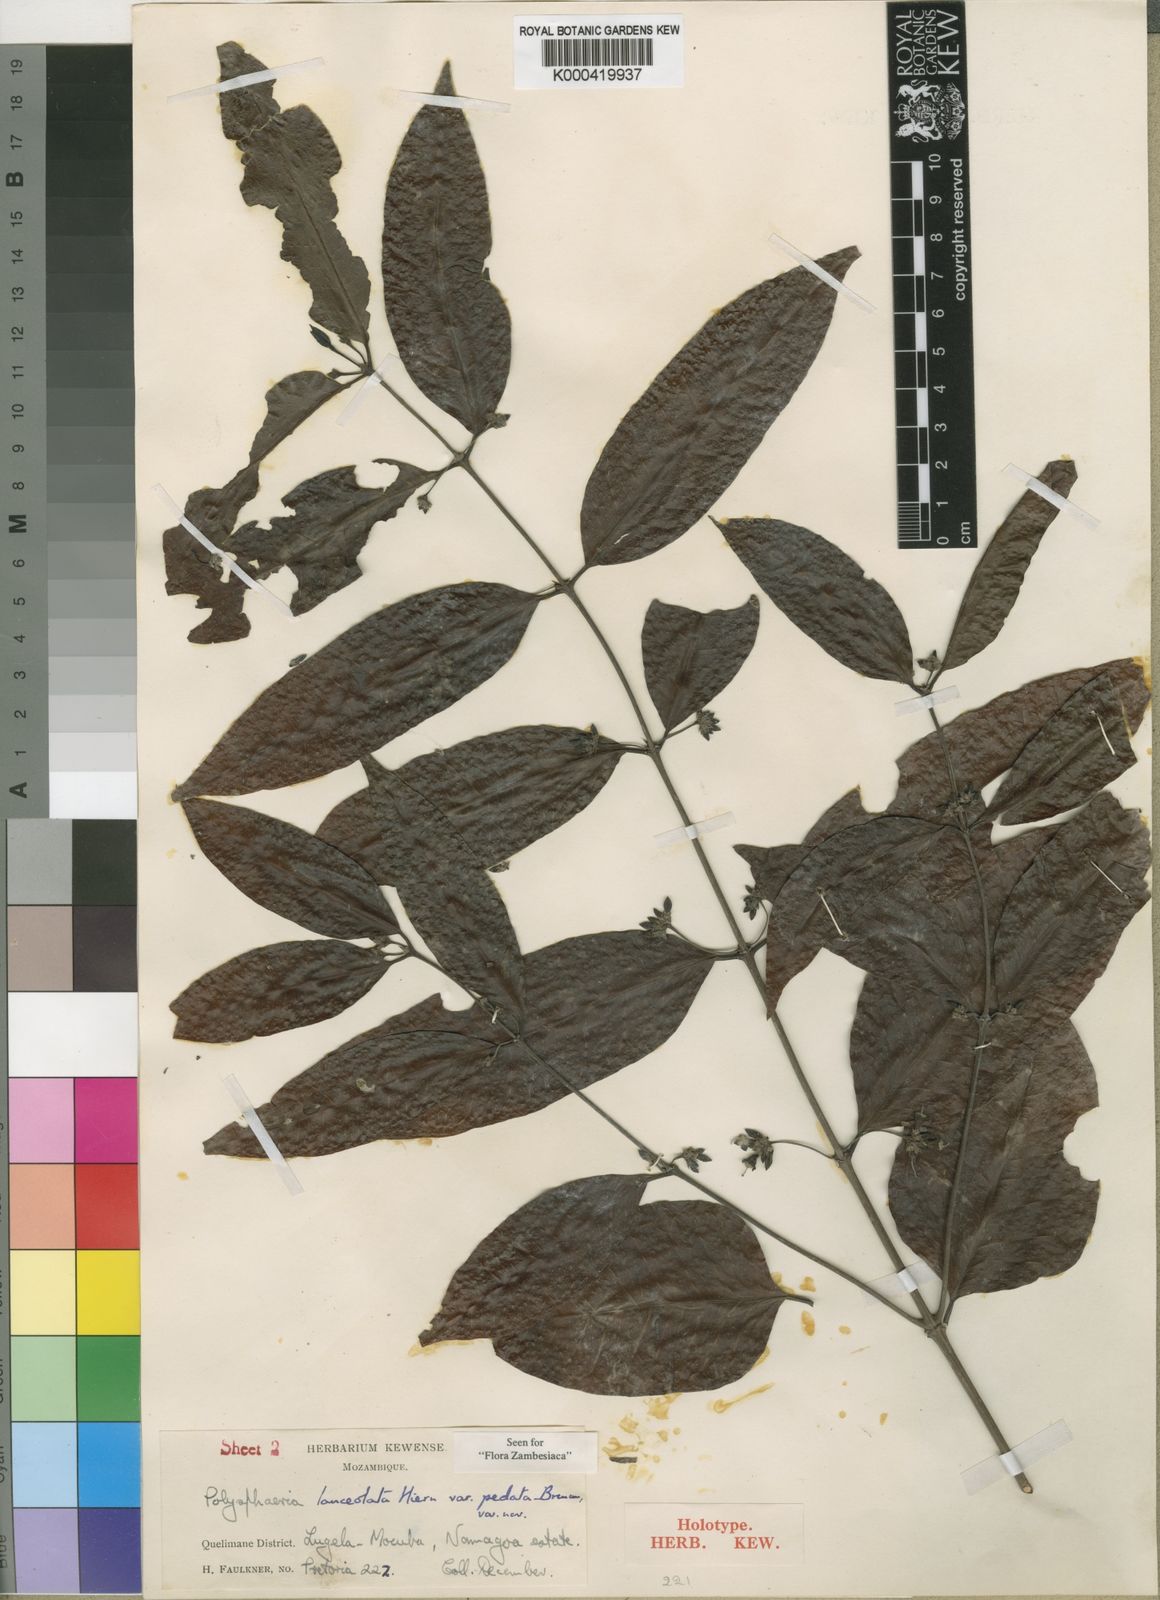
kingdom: Plantae
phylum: Tracheophyta
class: Magnoliopsida
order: Gentianales
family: Rubiaceae
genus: Polysphaeria
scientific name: Polysphaeria lanceolata
